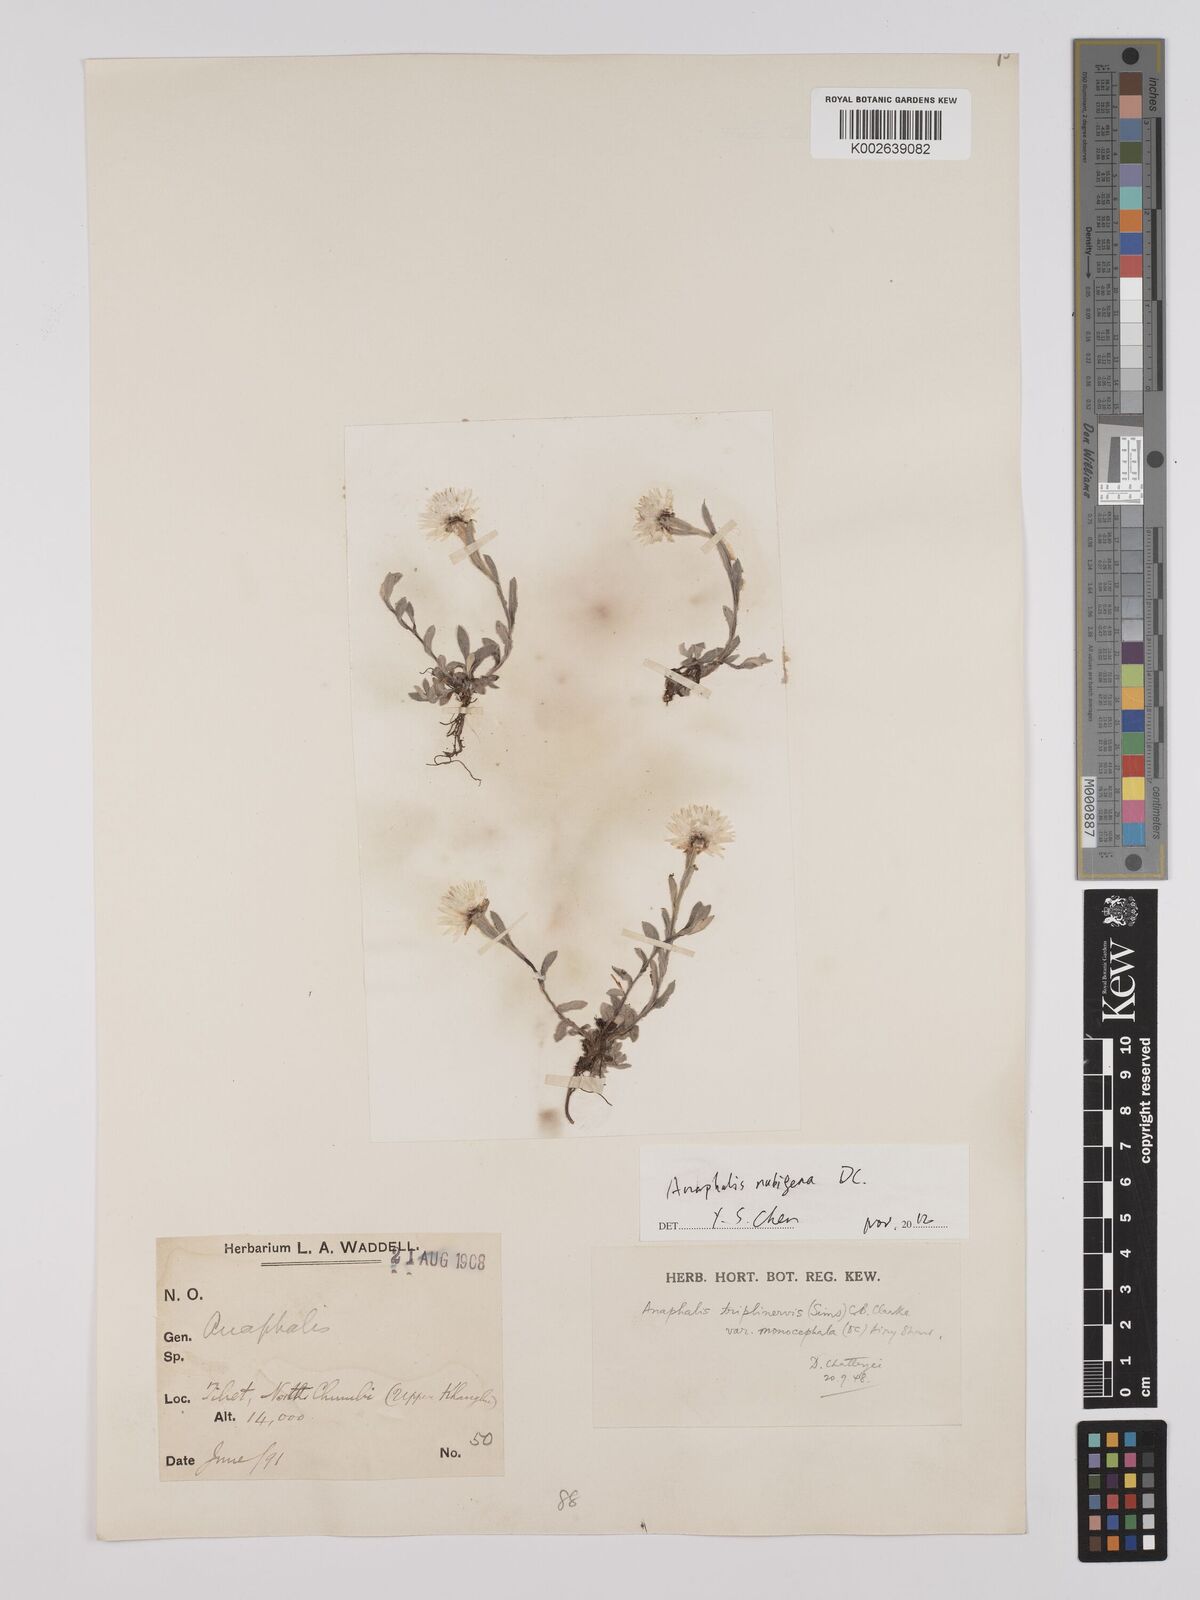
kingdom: Plantae
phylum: Tracheophyta
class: Magnoliopsida
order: Asterales
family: Asteraceae
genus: Anaphalis
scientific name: Anaphalis nepalensis
